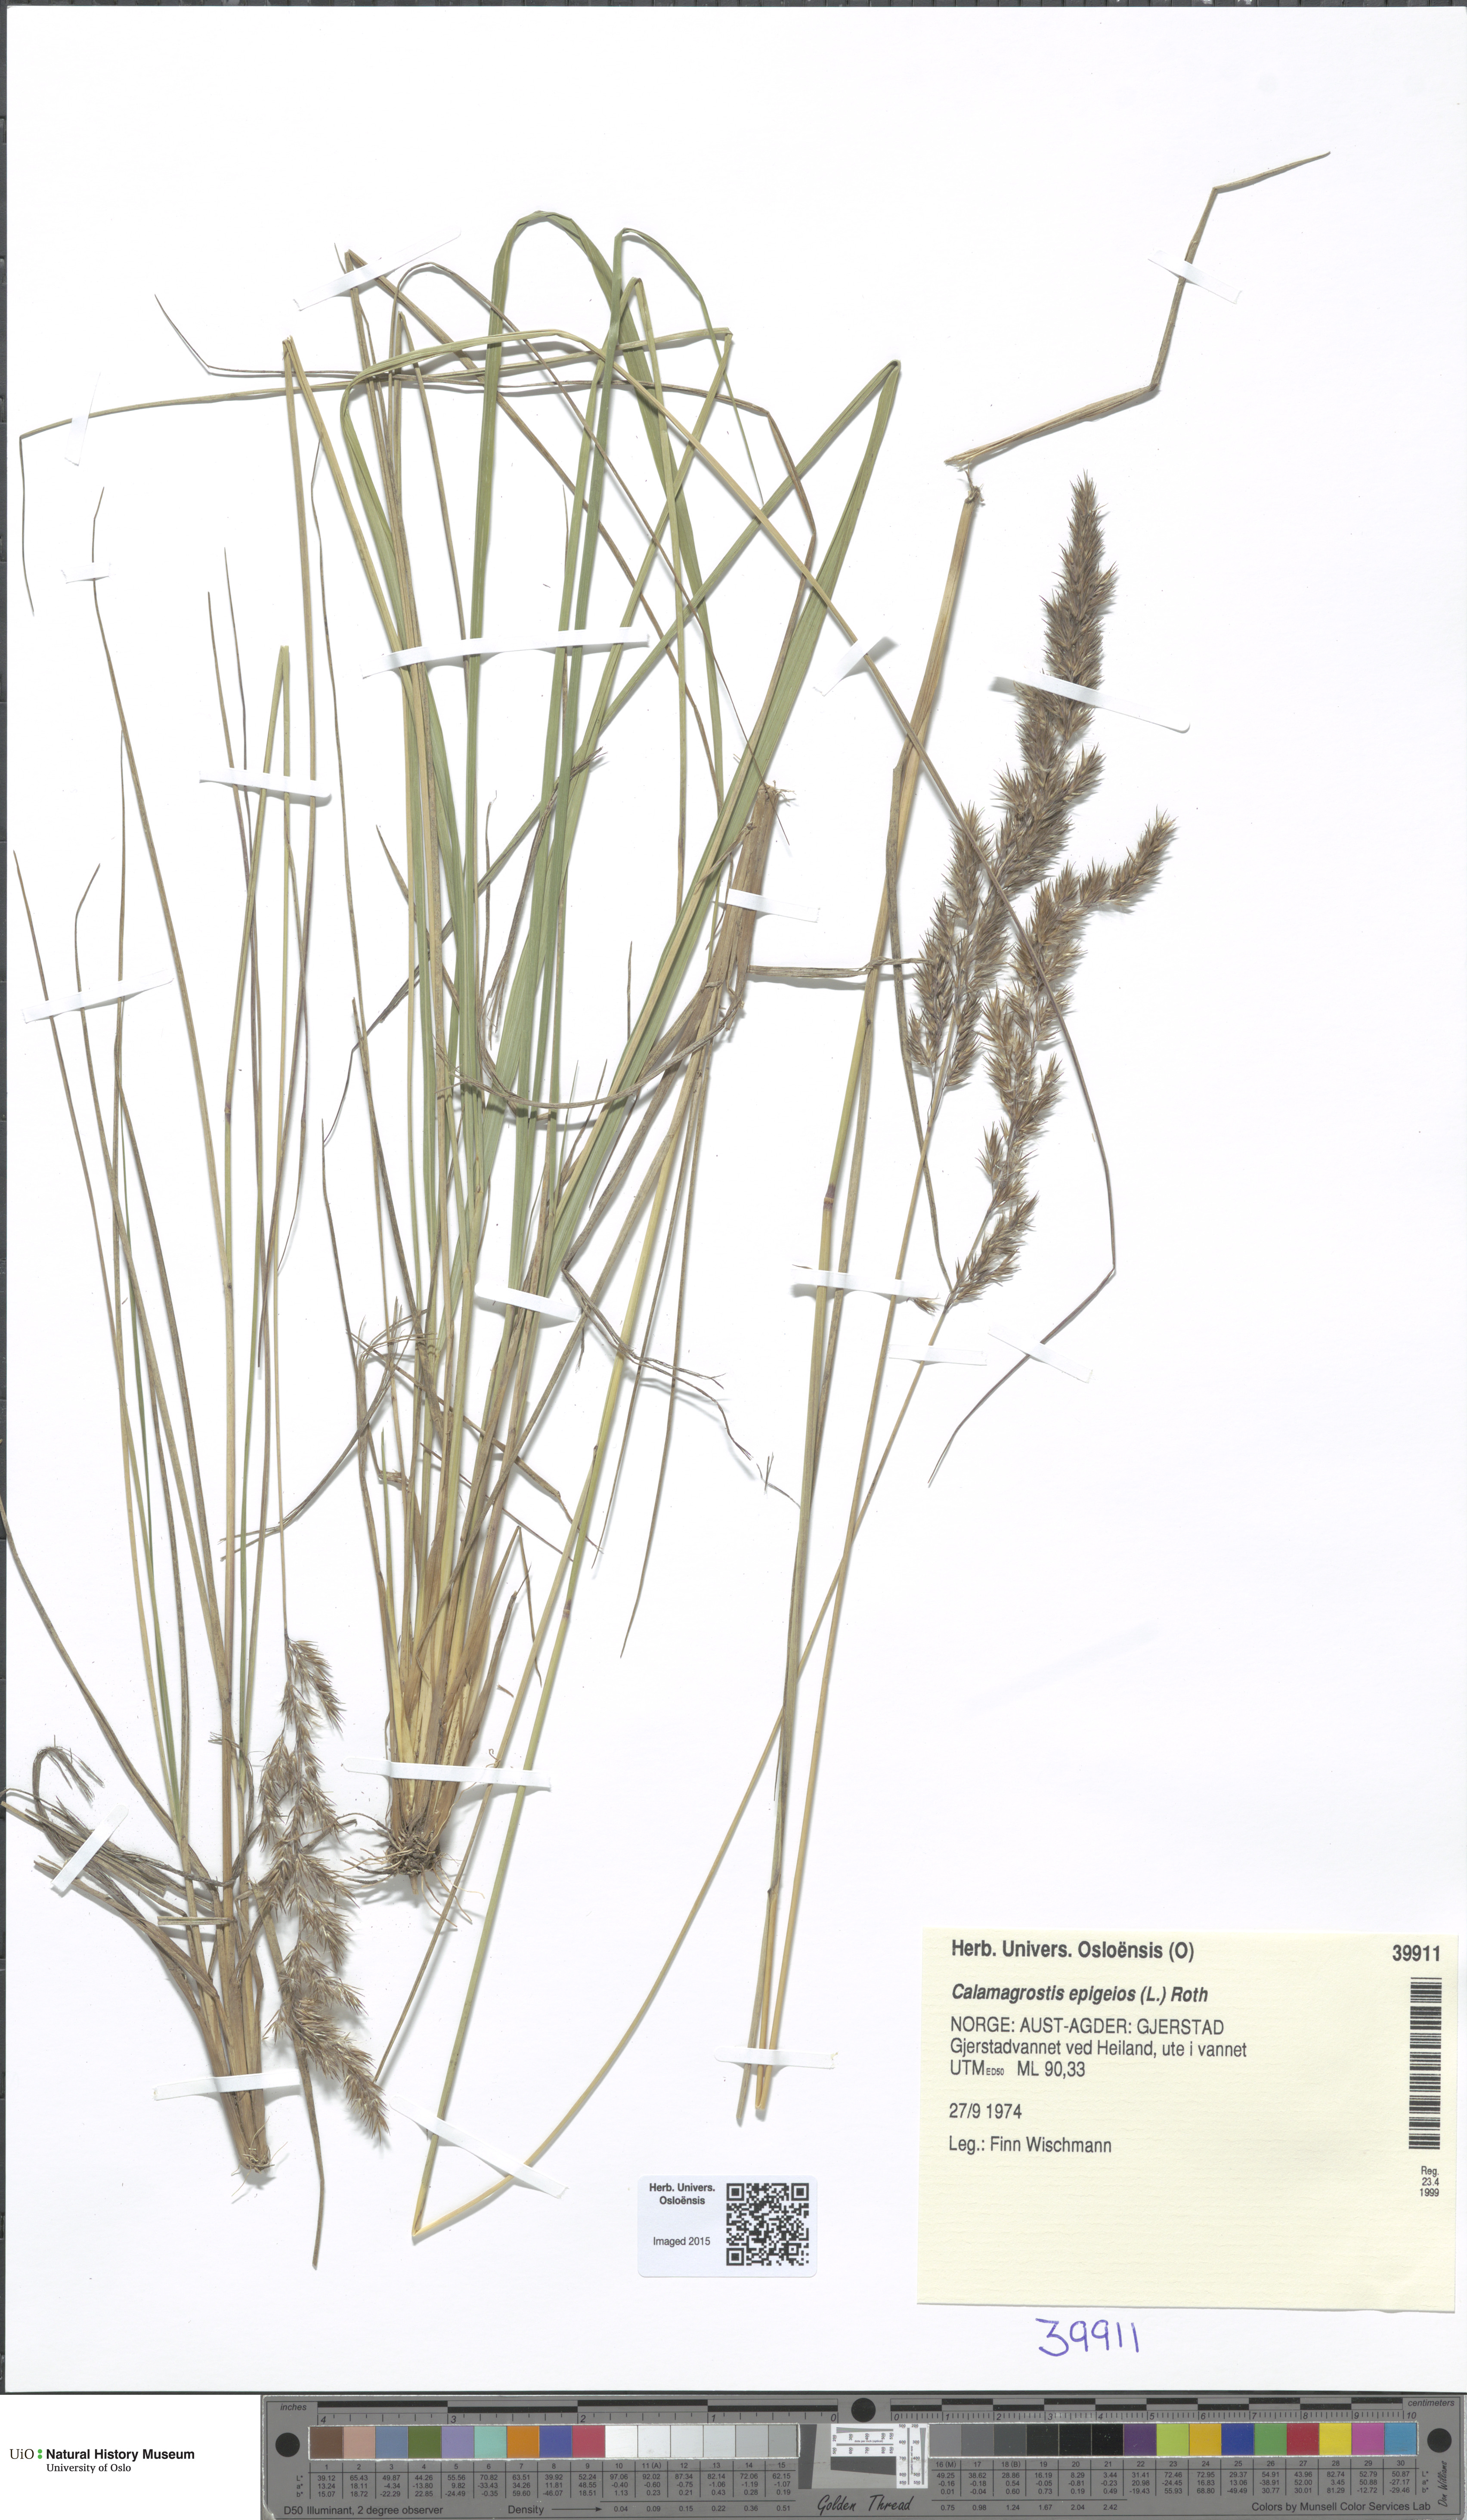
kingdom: Plantae
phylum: Tracheophyta
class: Liliopsida
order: Poales
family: Poaceae
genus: Calamagrostis
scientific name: Calamagrostis epigejos
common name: Wood small-reed
